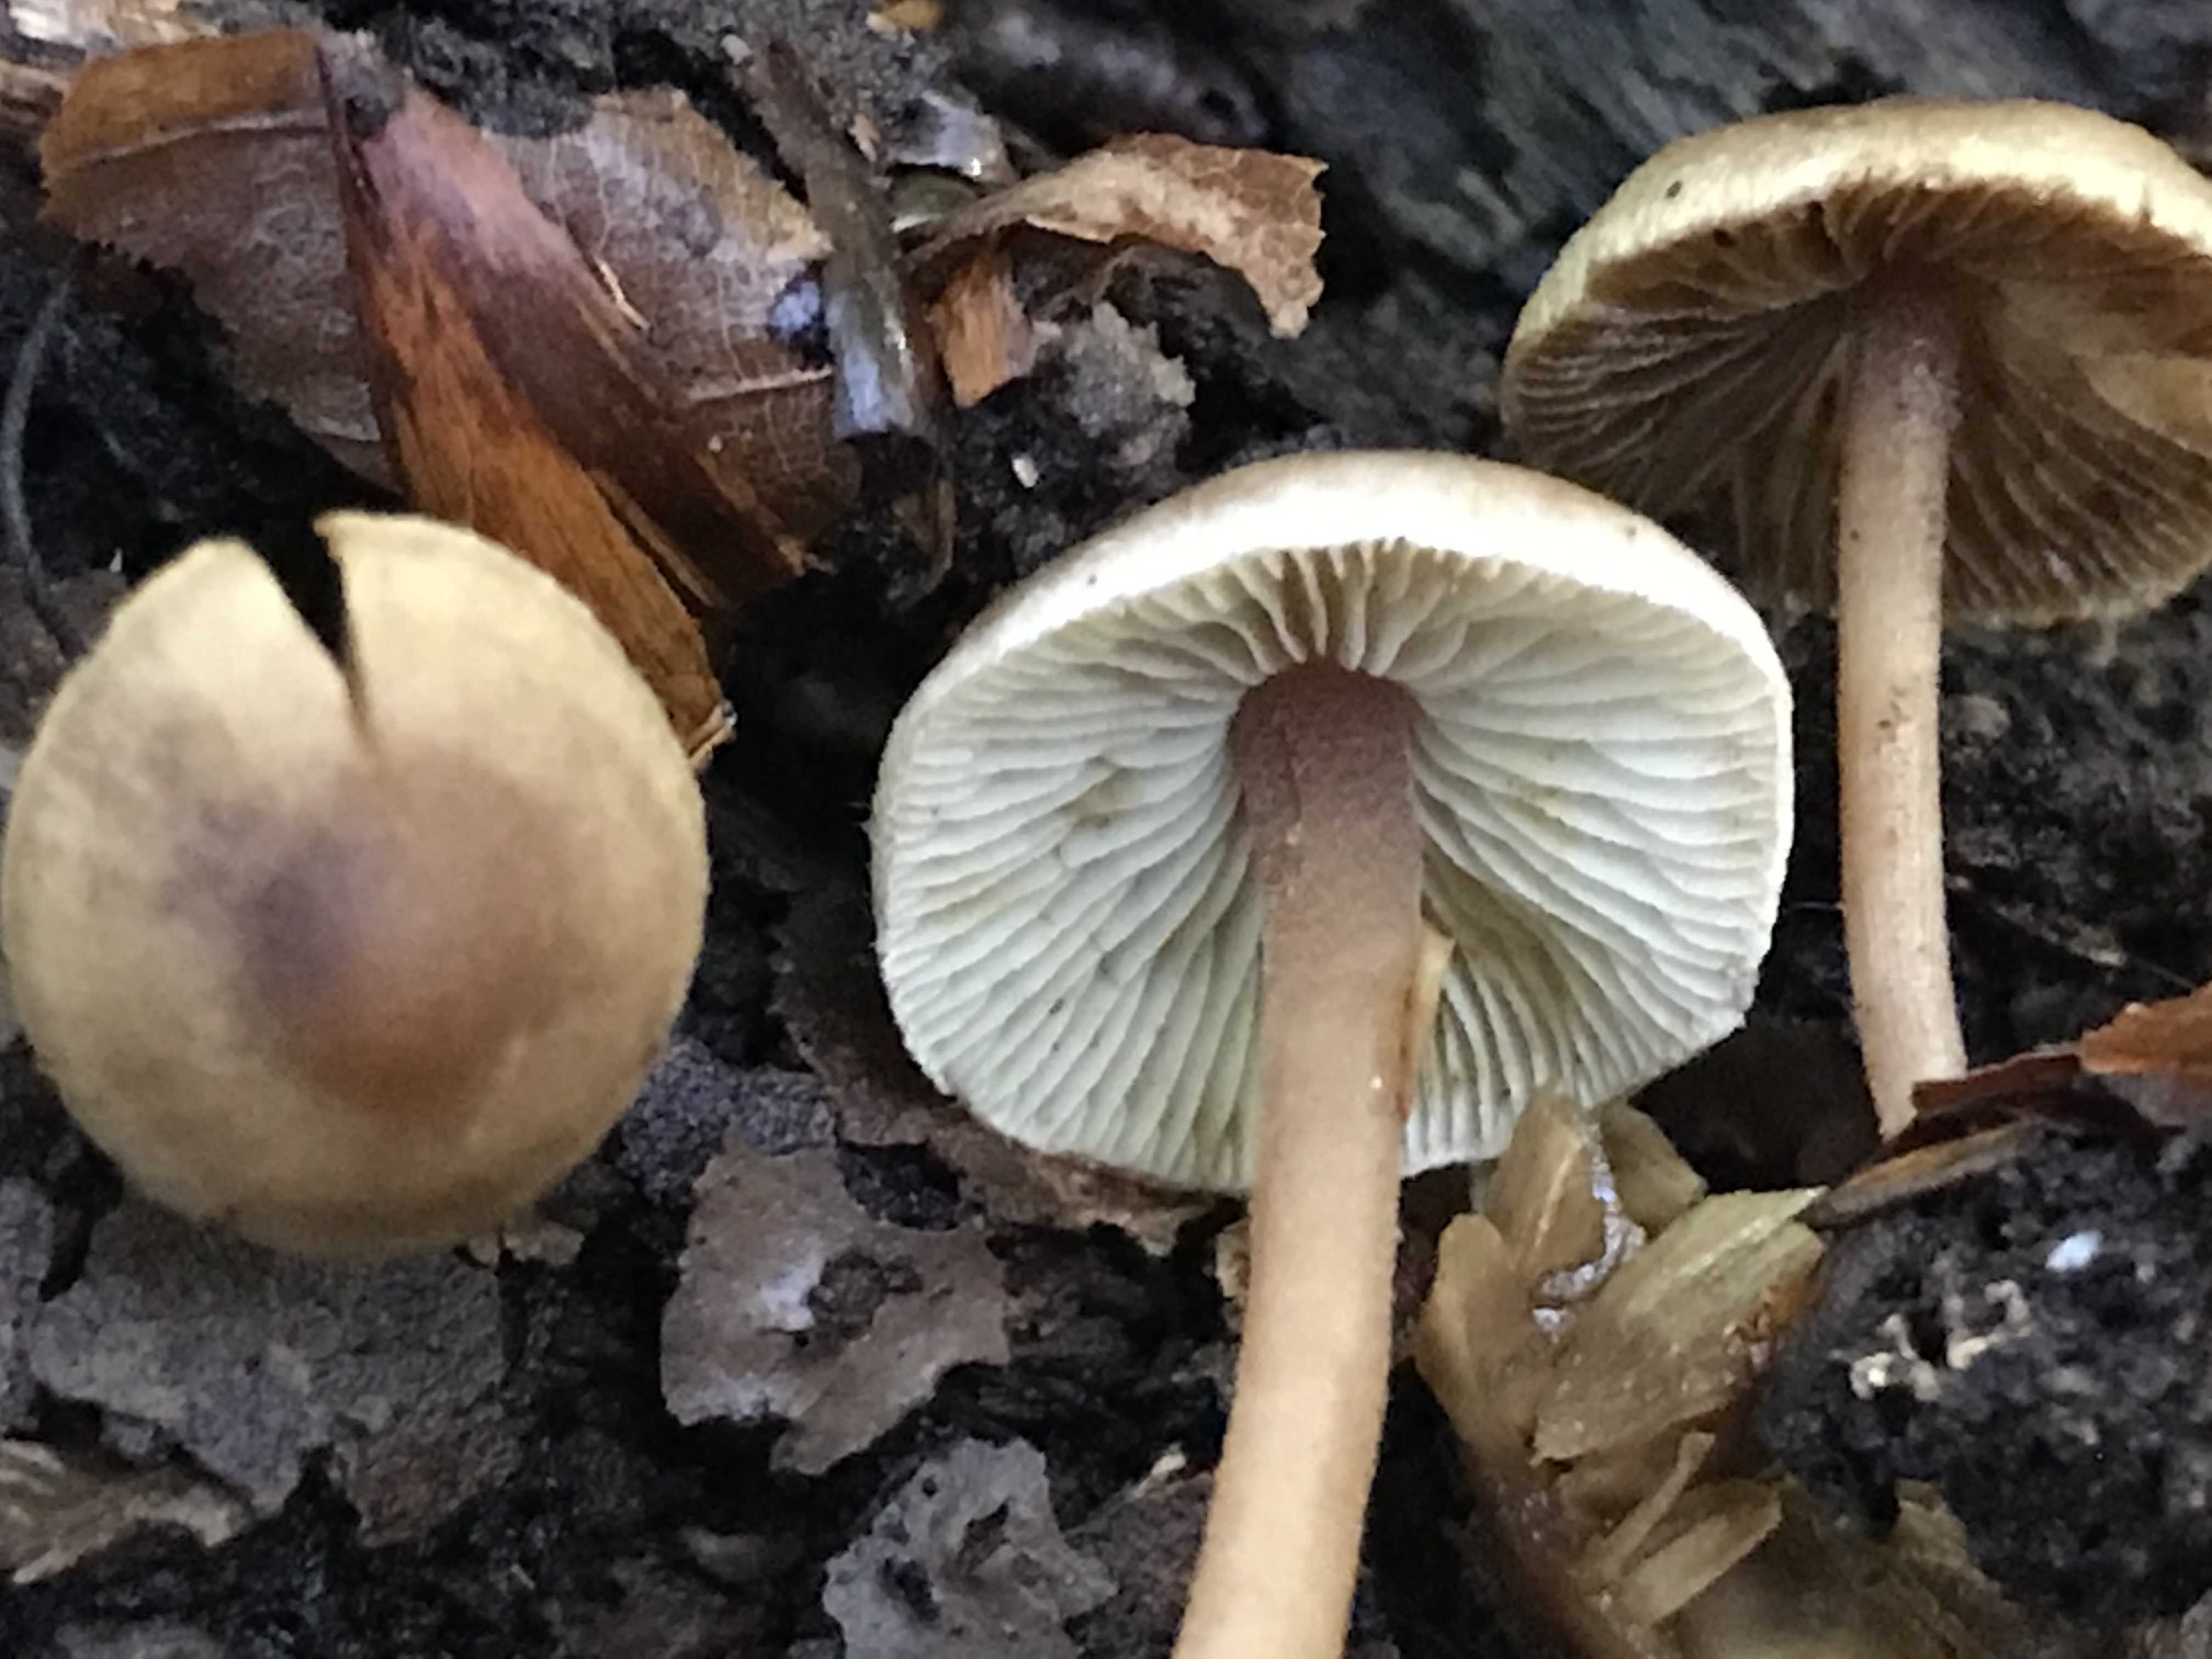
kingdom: Fungi
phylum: Basidiomycota
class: Agaricomycetes
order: Agaricales
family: Inocybaceae
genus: Inocybe
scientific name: Inocybe petiginosa
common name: liden trævlhat
